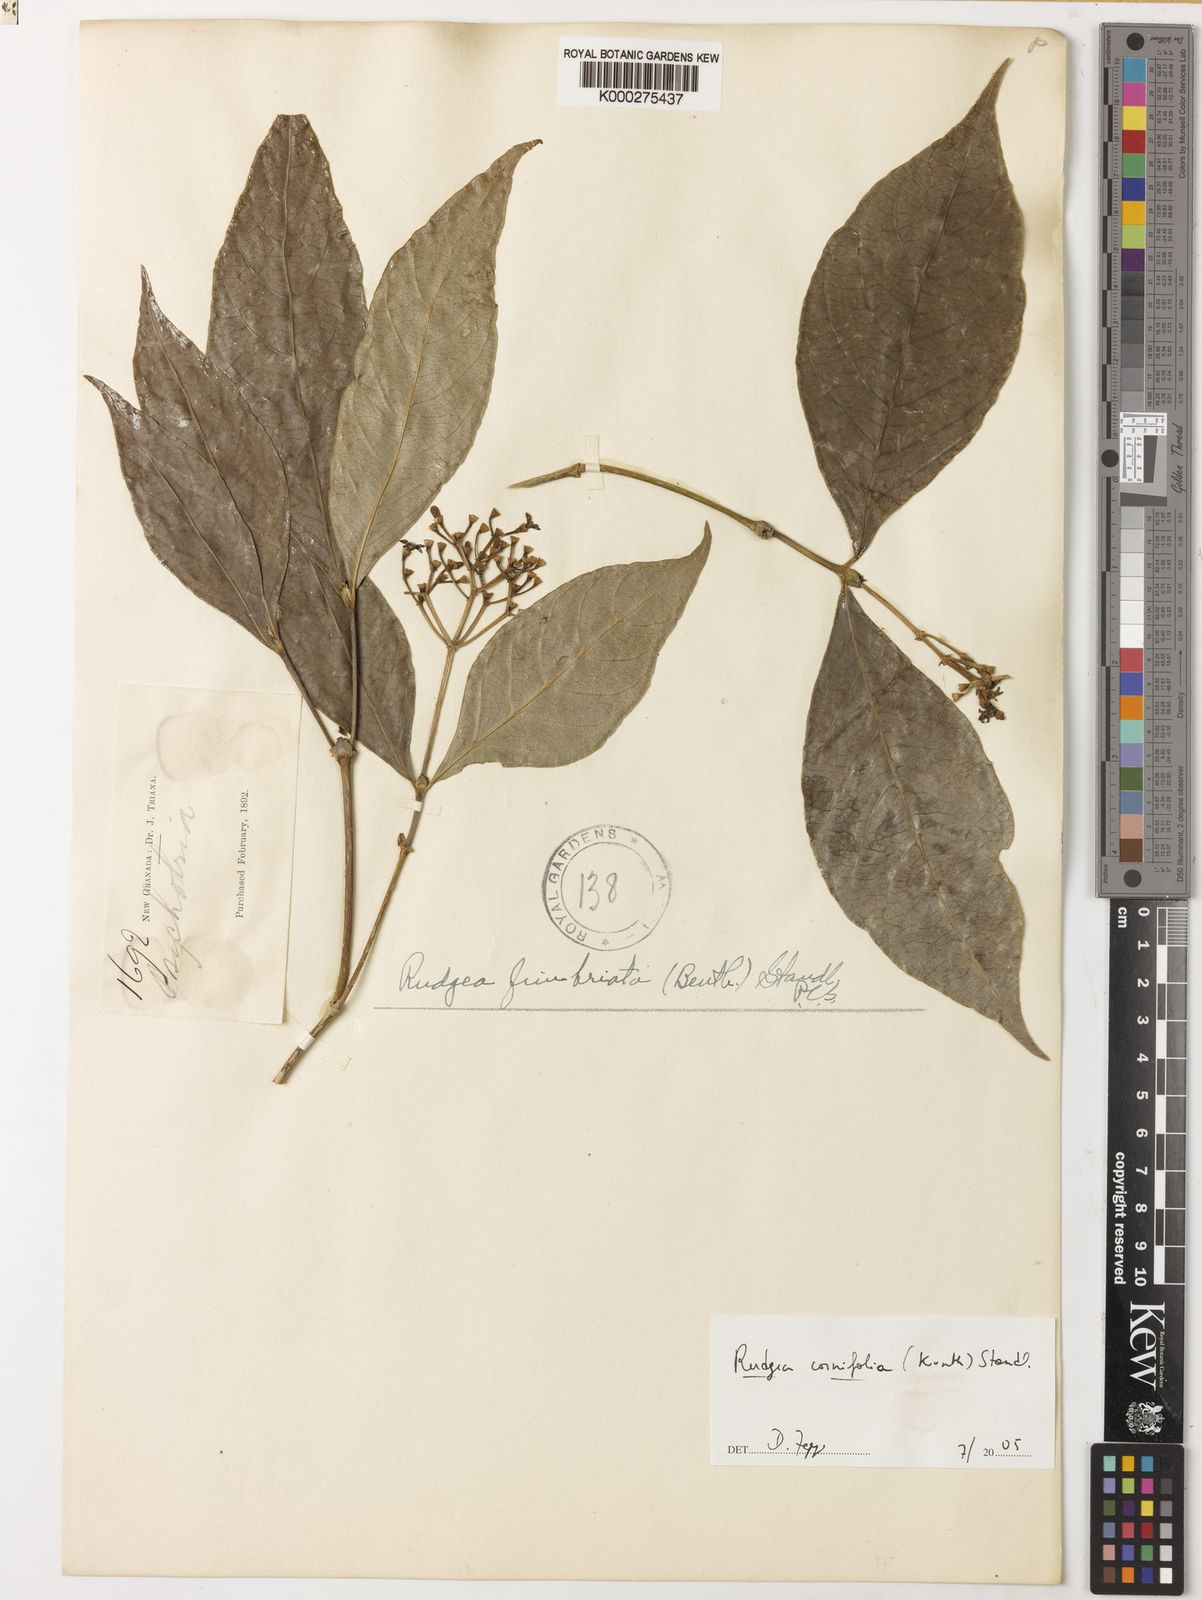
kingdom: Plantae
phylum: Tracheophyta
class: Magnoliopsida
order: Gentianales
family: Rubiaceae
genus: Rudgea
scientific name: Rudgea cornifolia
